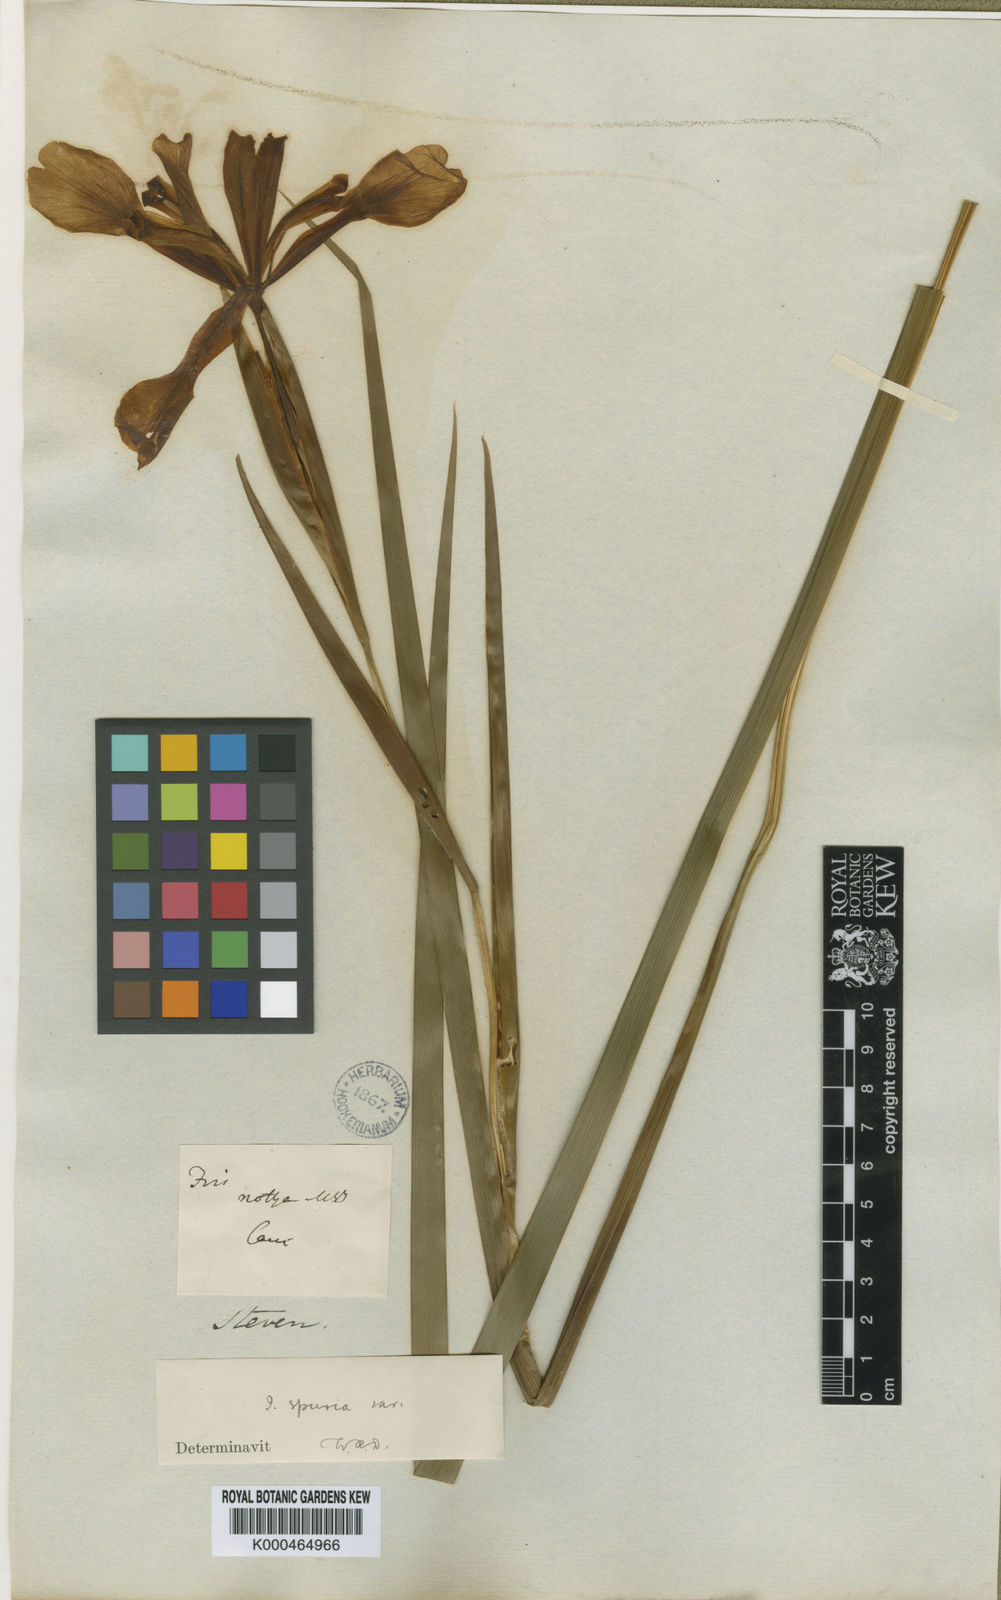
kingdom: Plantae
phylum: Tracheophyta
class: Liliopsida
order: Asparagales
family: Iridaceae
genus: Iris
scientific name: Iris
